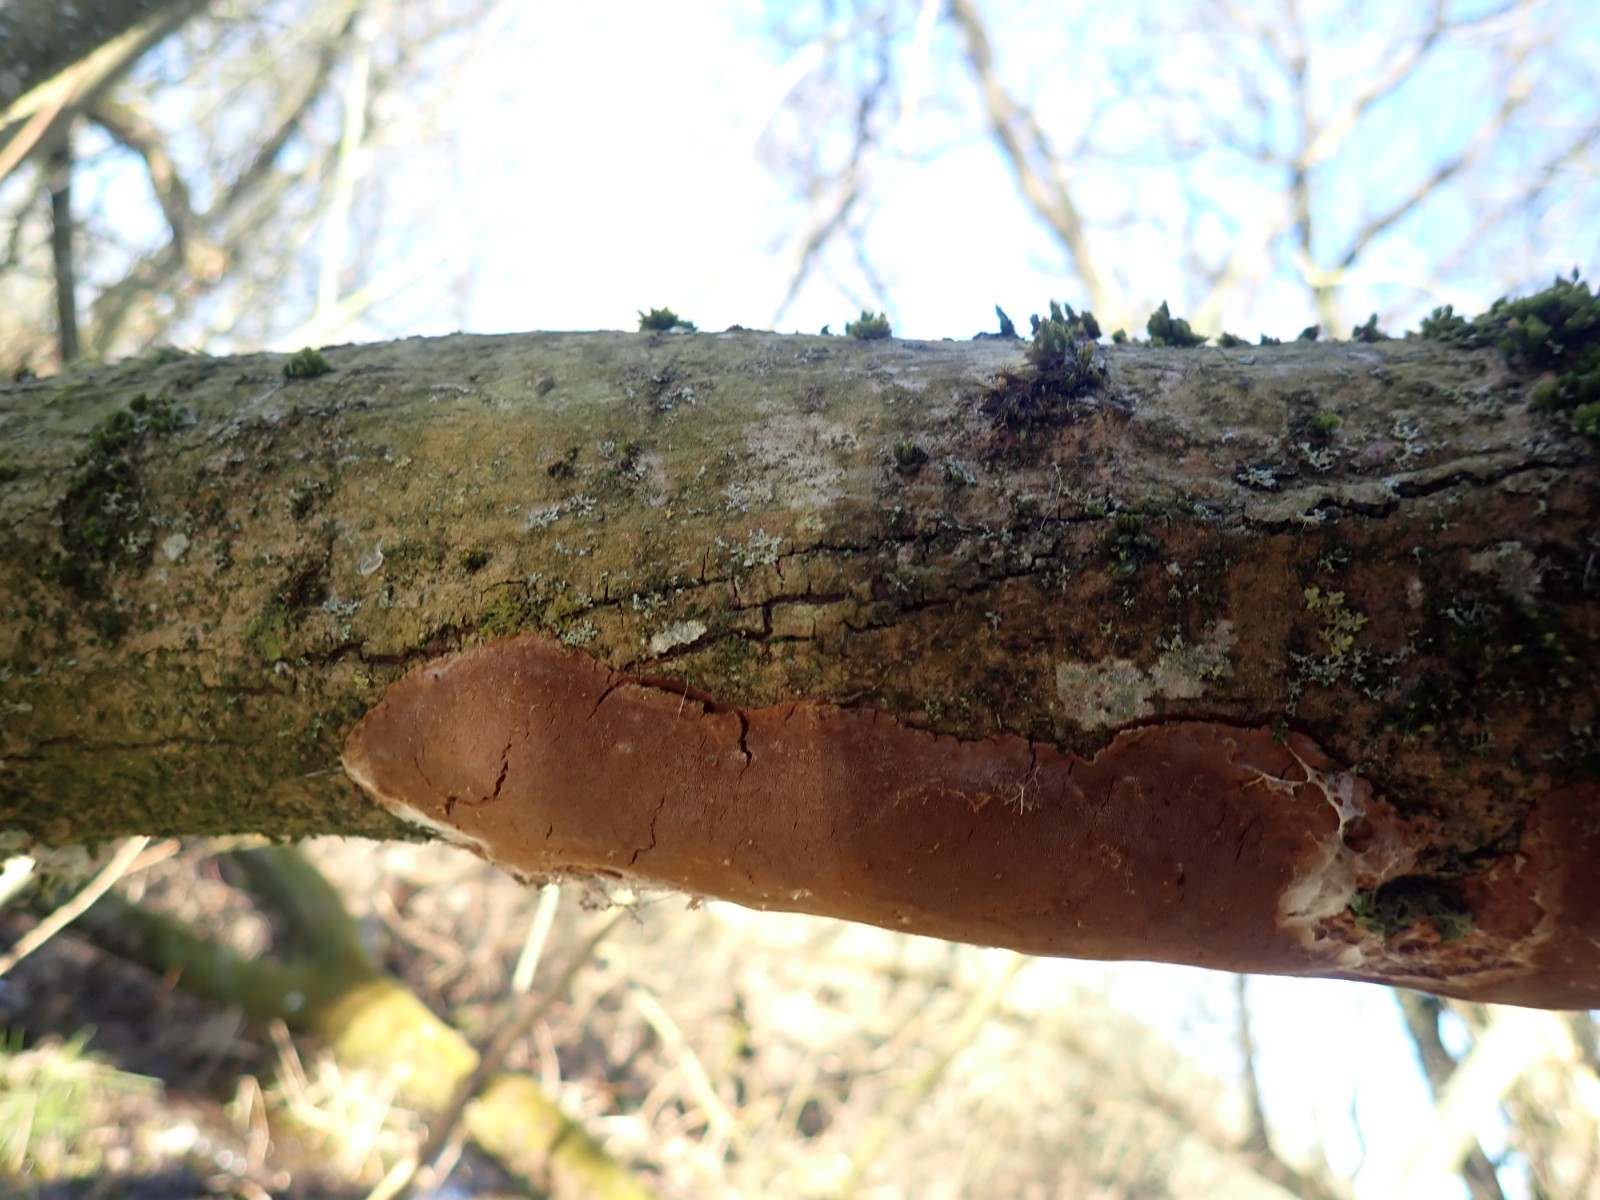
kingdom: Fungi
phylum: Basidiomycota
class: Agaricomycetes
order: Hymenochaetales
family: Hymenochaetaceae
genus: Fomitiporia
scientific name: Fomitiporia punctata
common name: pude-ildporesvamp
